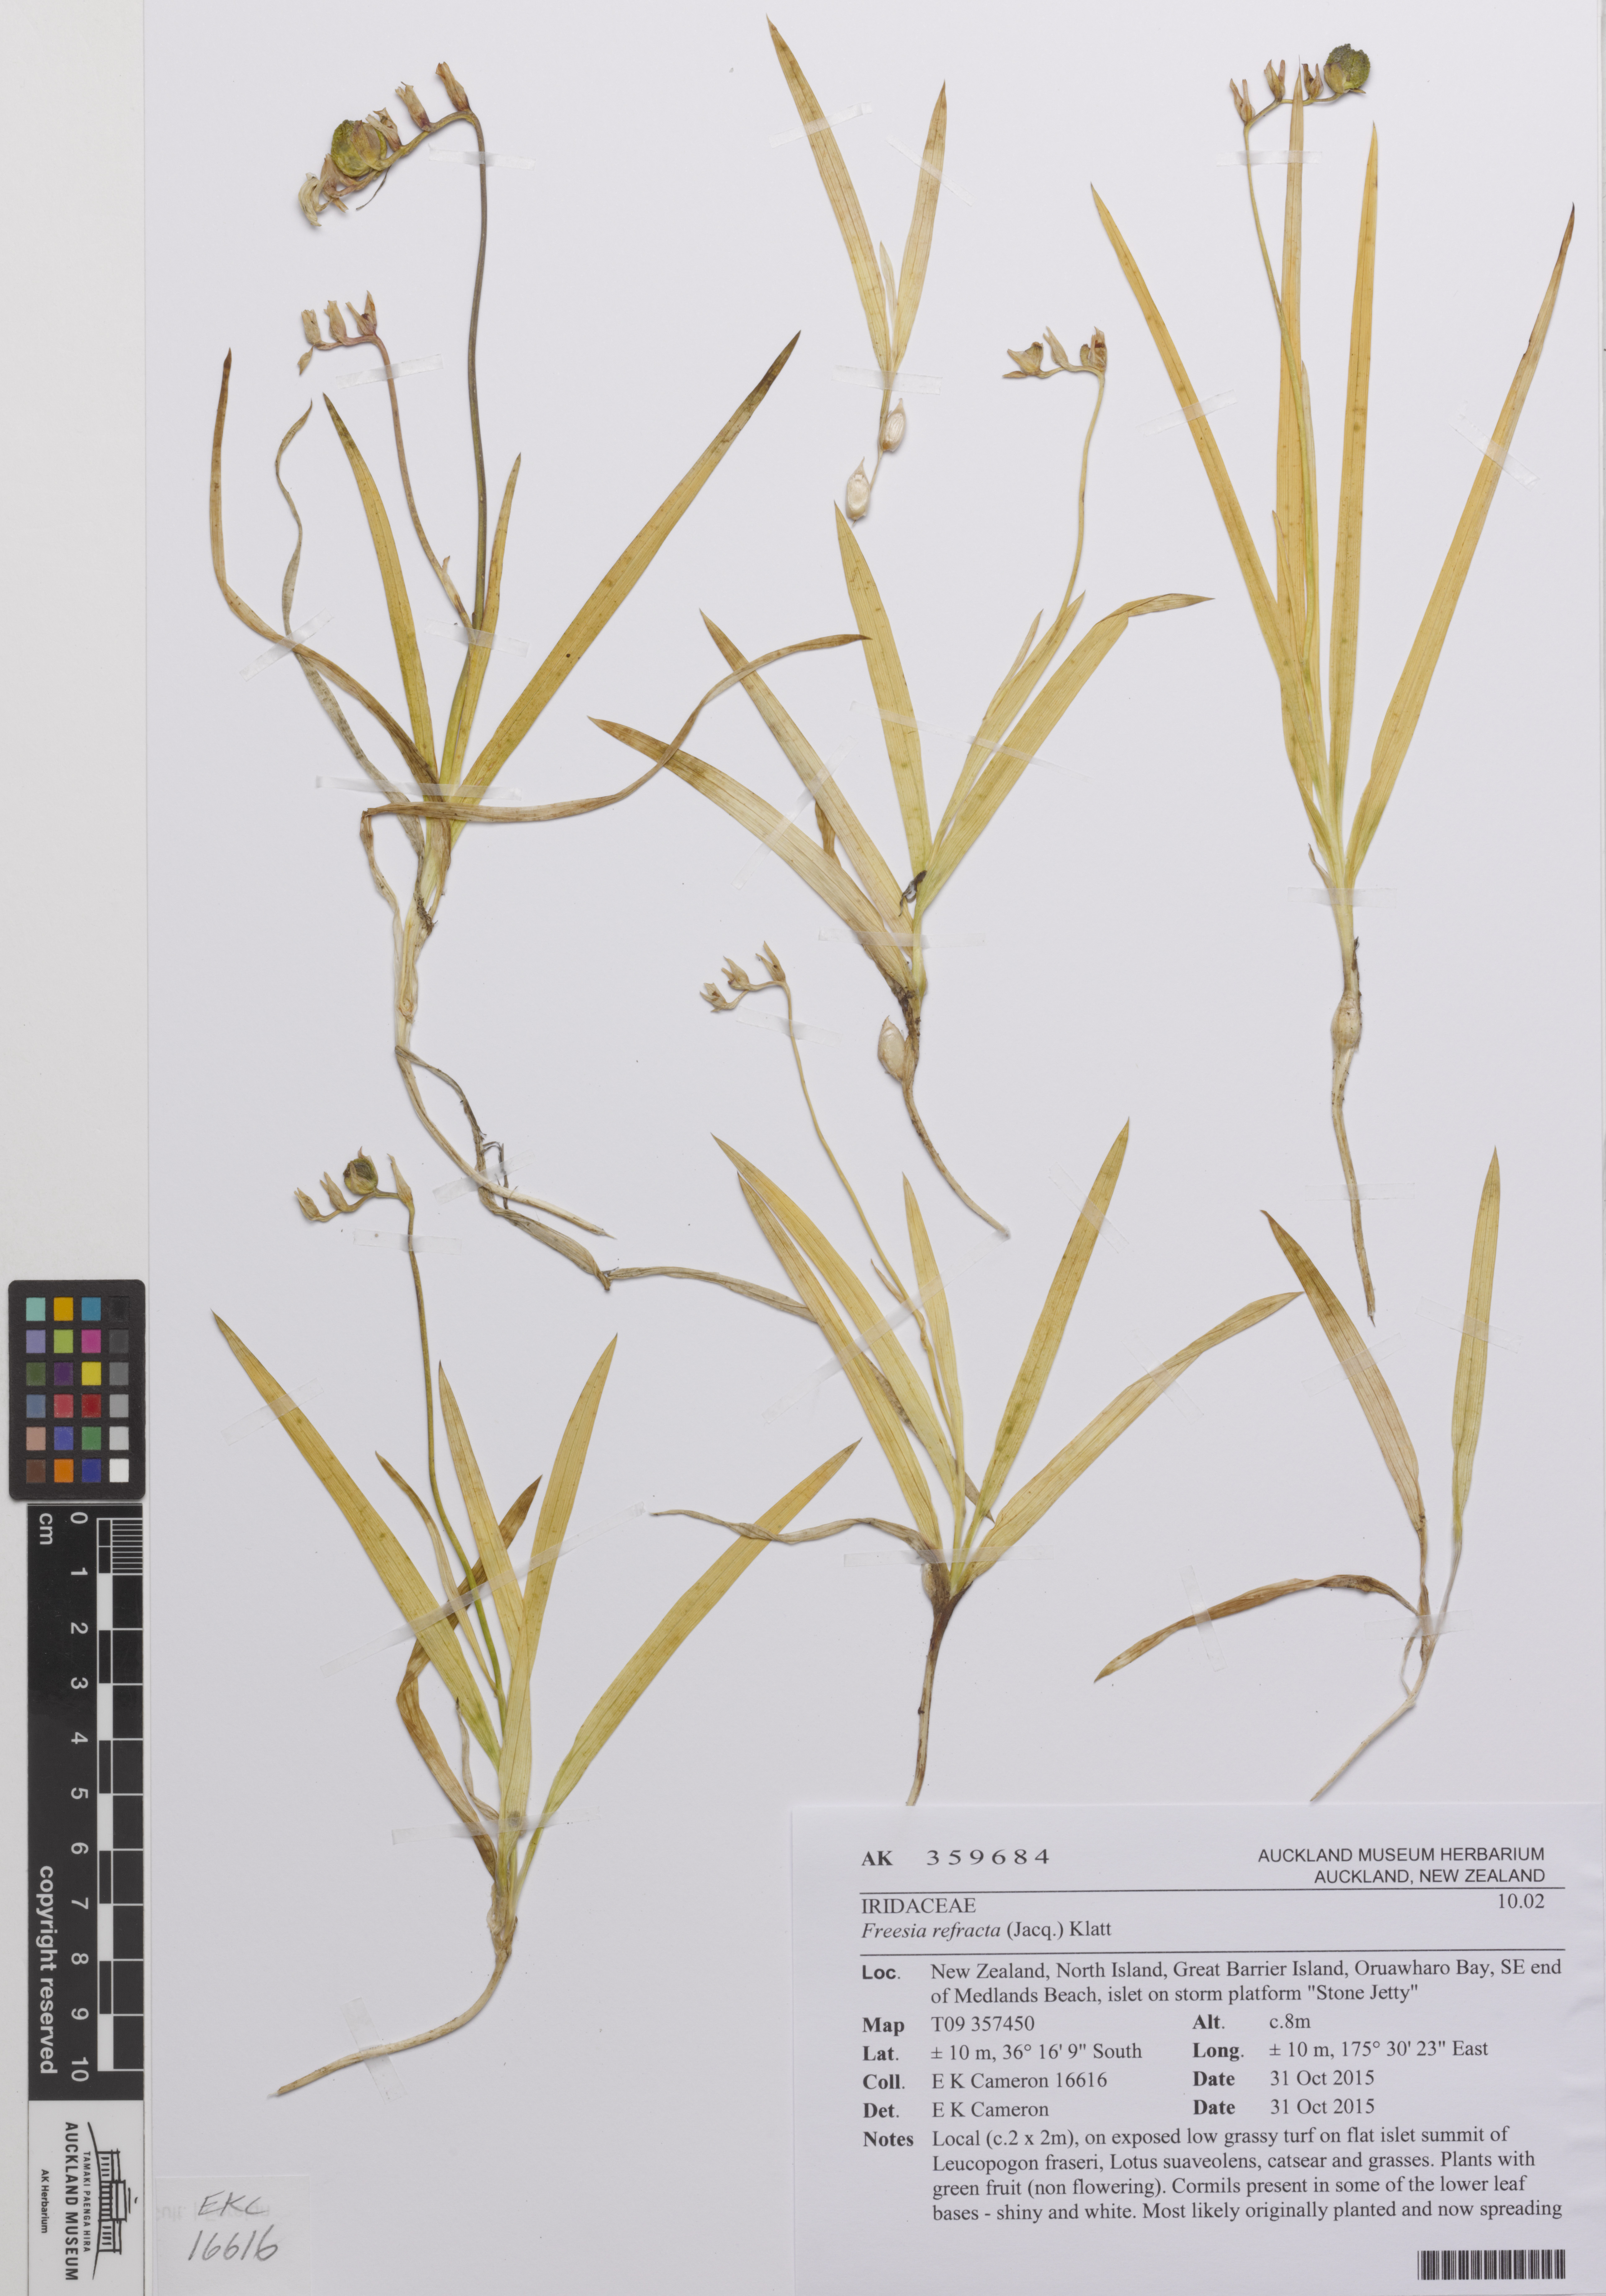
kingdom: Plantae
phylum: Tracheophyta
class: Liliopsida
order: Asparagales
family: Iridaceae
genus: Freesia
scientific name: Freesia refracta
